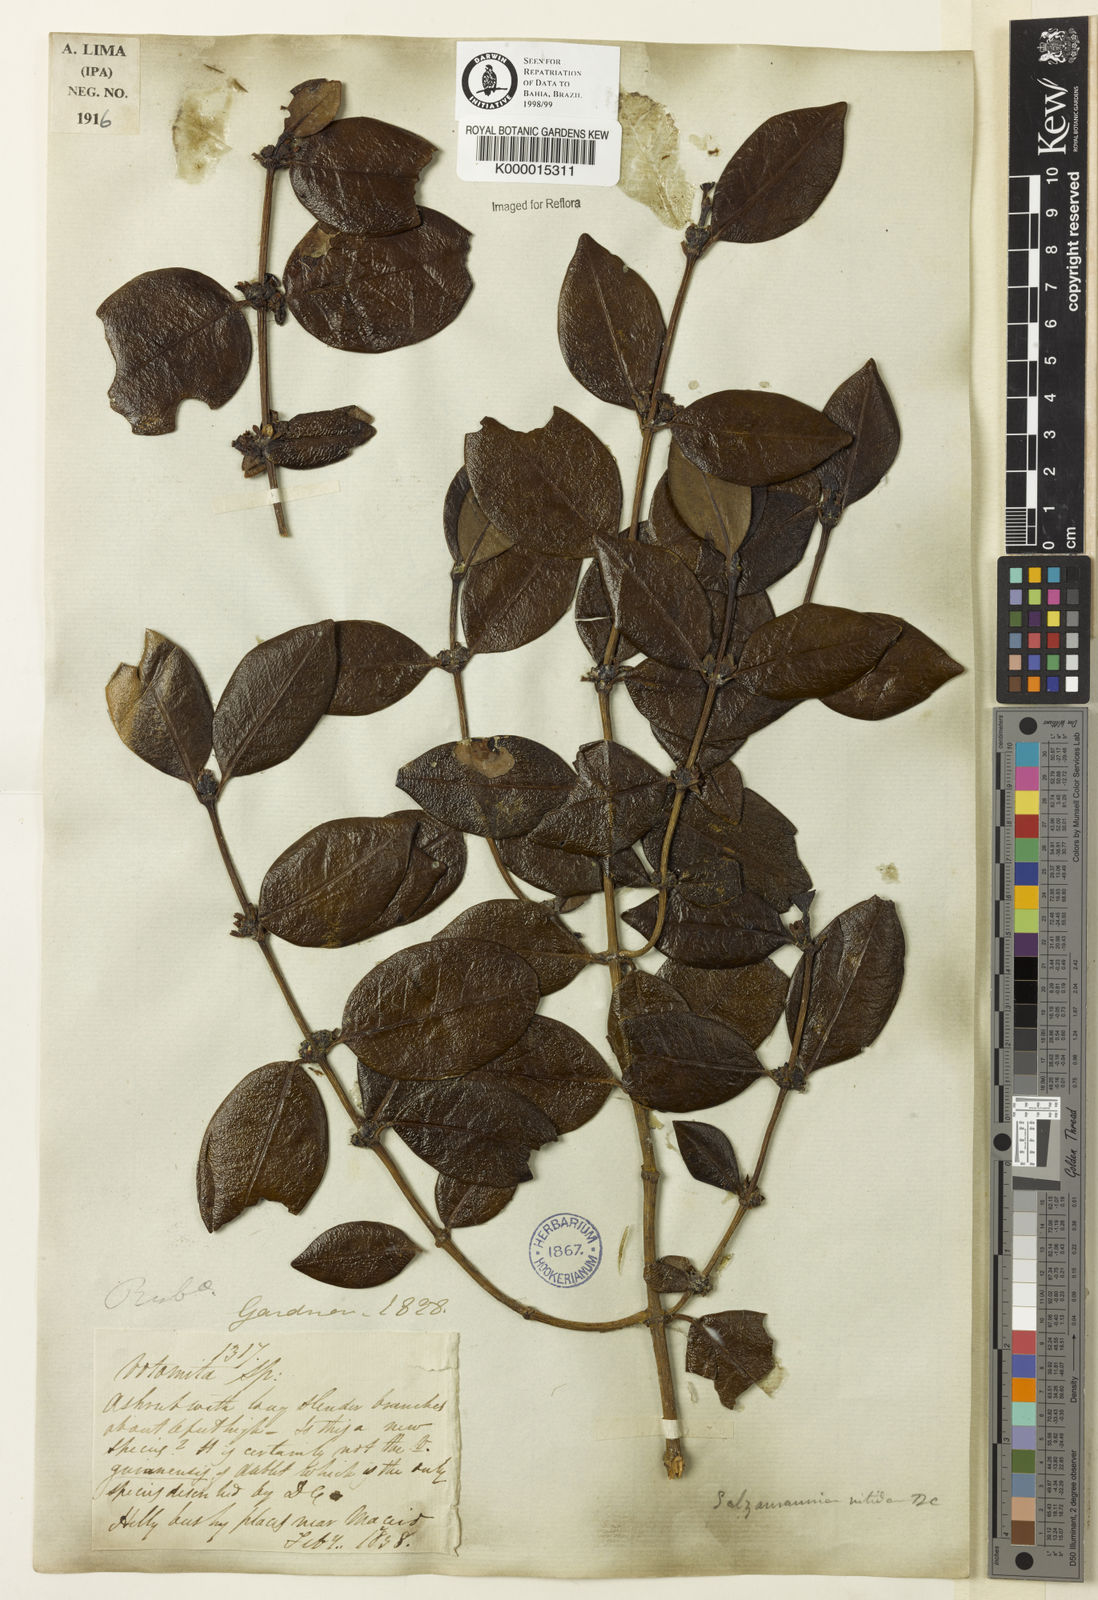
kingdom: Plantae
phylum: Tracheophyta
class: Magnoliopsida
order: Gentianales
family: Rubiaceae
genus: Salzmannia
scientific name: Salzmannia nitida
